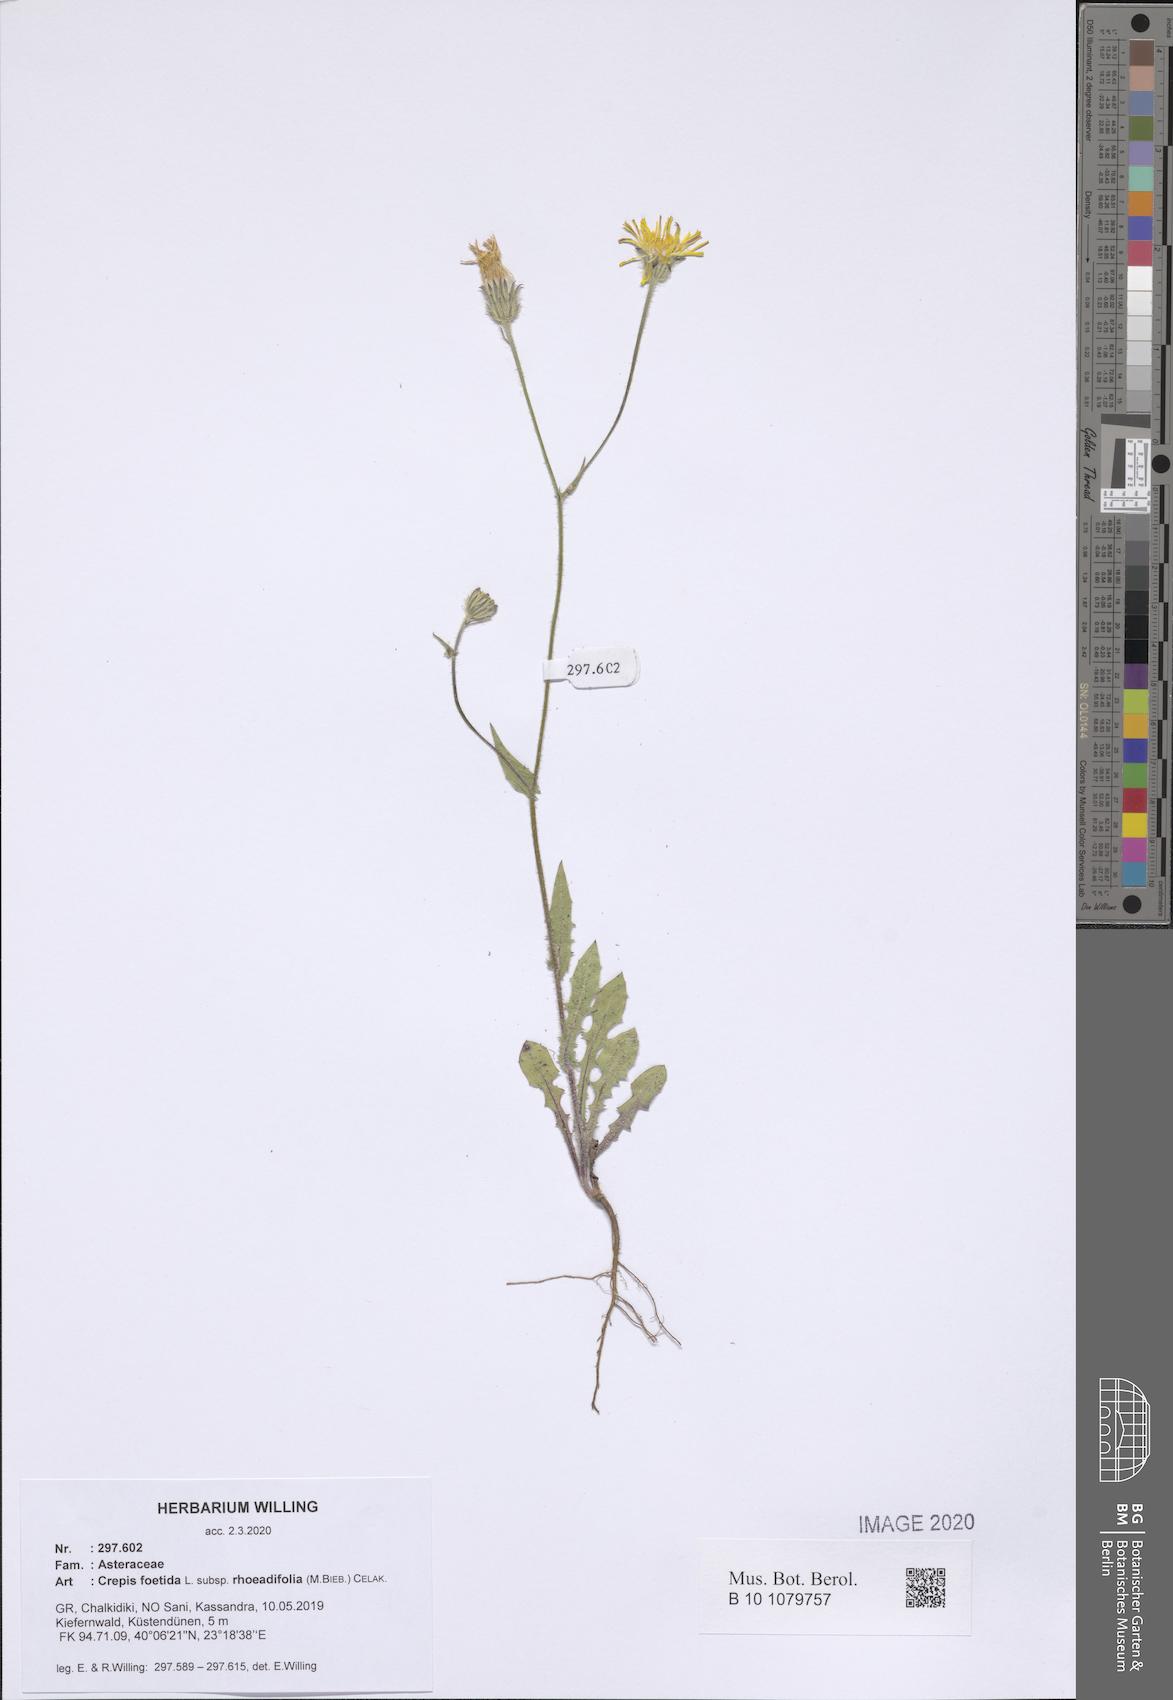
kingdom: Plantae
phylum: Tracheophyta
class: Magnoliopsida
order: Asterales
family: Asteraceae
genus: Crepis
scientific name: Crepis foetida
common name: Stinking hawk's-beard
